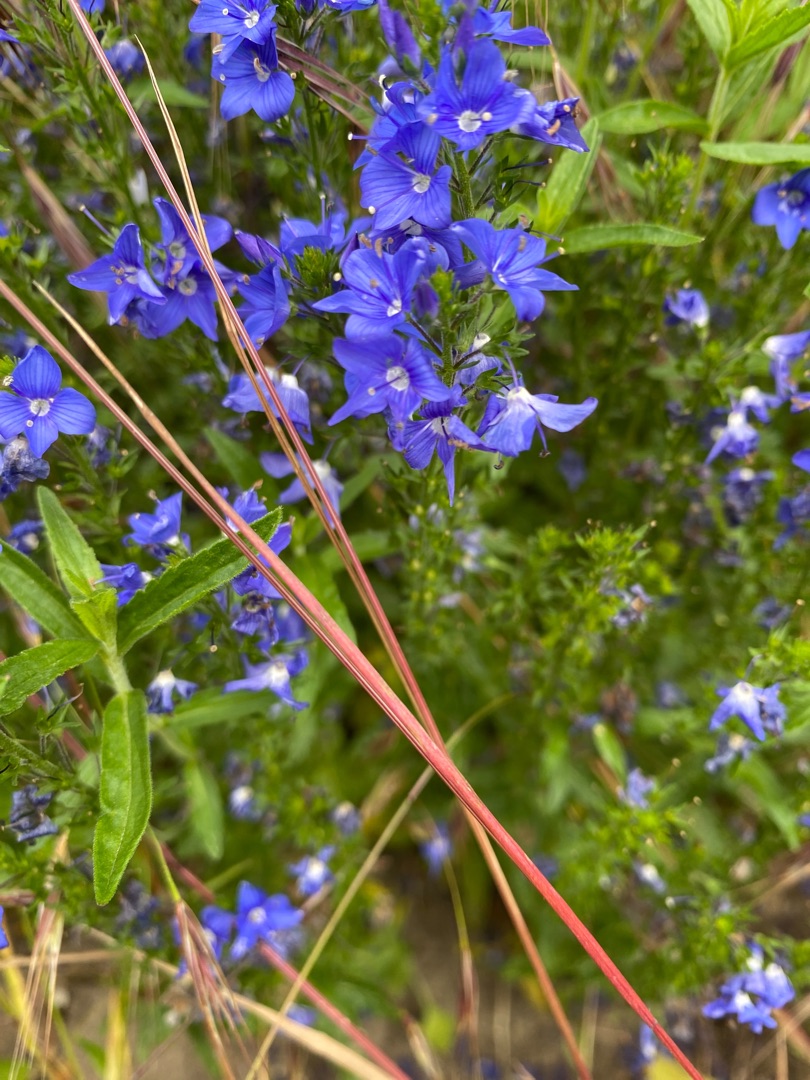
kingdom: Plantae
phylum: Tracheophyta
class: Magnoliopsida
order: Lamiales
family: Plantaginaceae
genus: Veronica
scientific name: Veronica teucrium
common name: Bredbladet ærenpris
